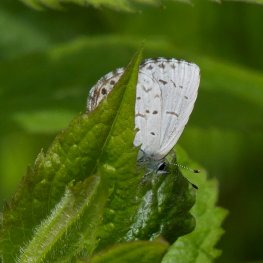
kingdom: Animalia
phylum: Arthropoda
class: Insecta
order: Lepidoptera
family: Lycaenidae
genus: Celastrina
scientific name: Celastrina lucia
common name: Northern Spring Azure
